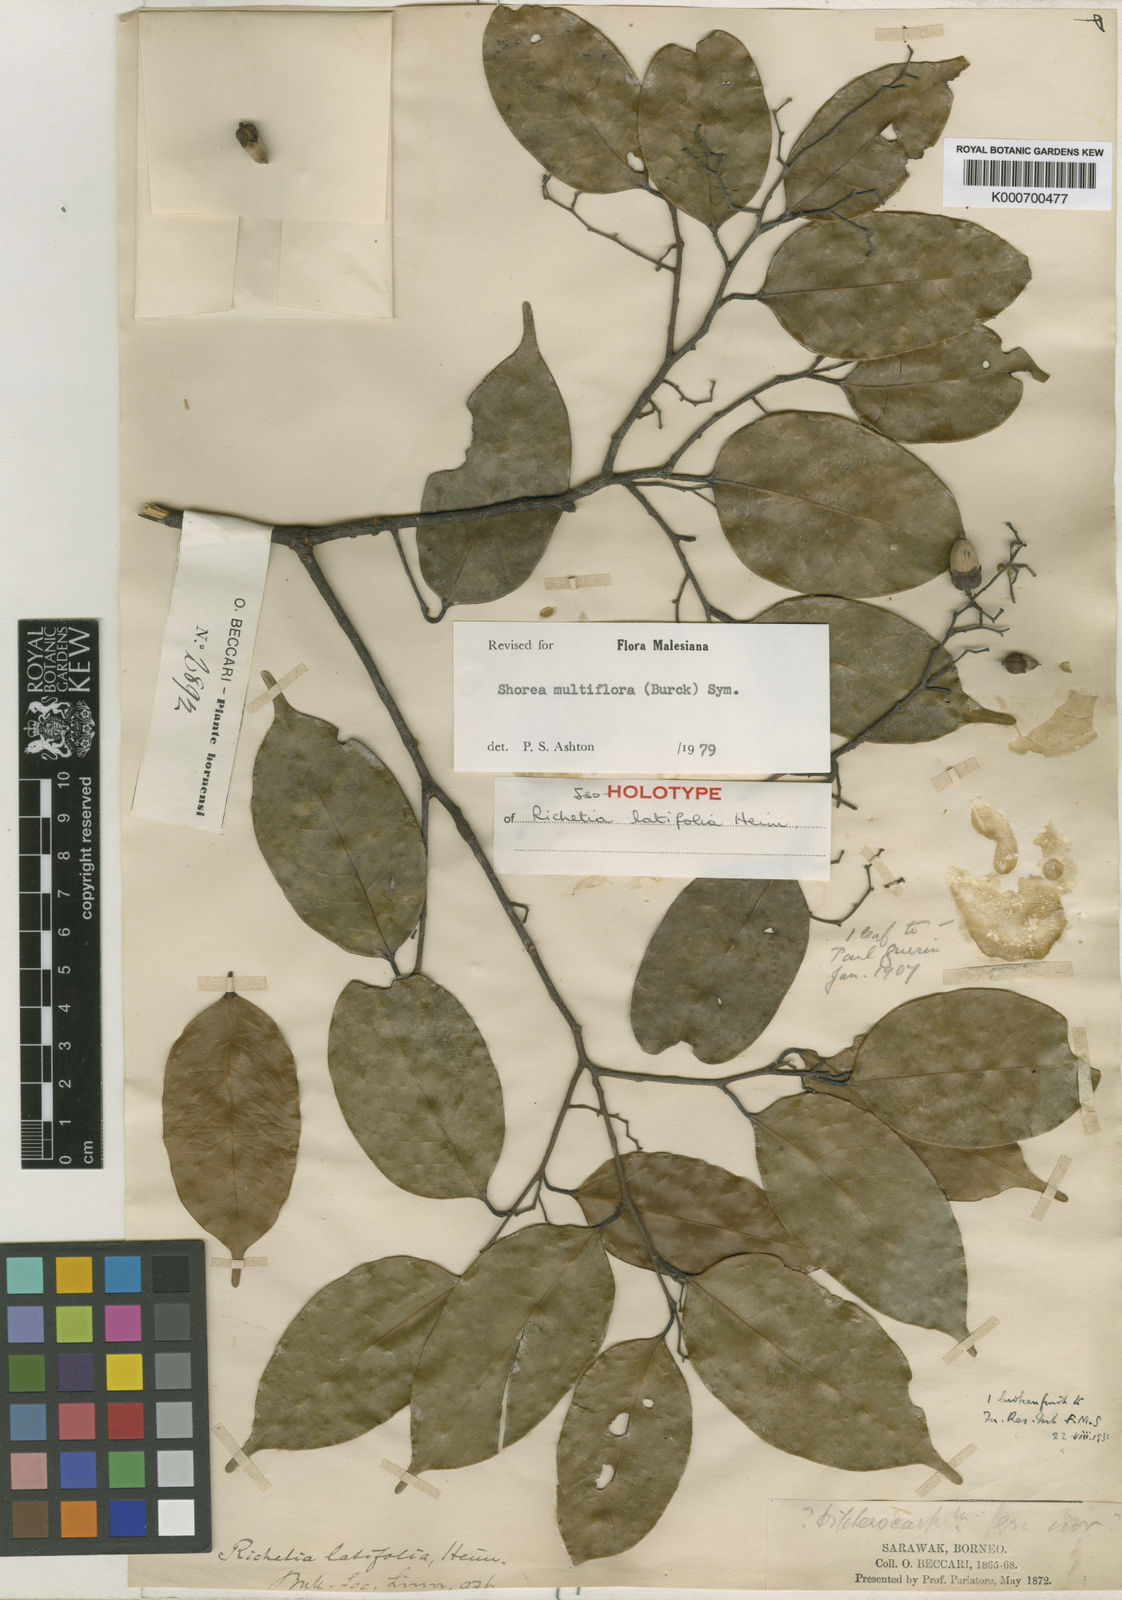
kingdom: Plantae
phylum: Tracheophyta
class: Magnoliopsida
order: Malvales
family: Dipterocarpaceae
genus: Shorea
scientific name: Shorea multiflora
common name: Yellow meranti
